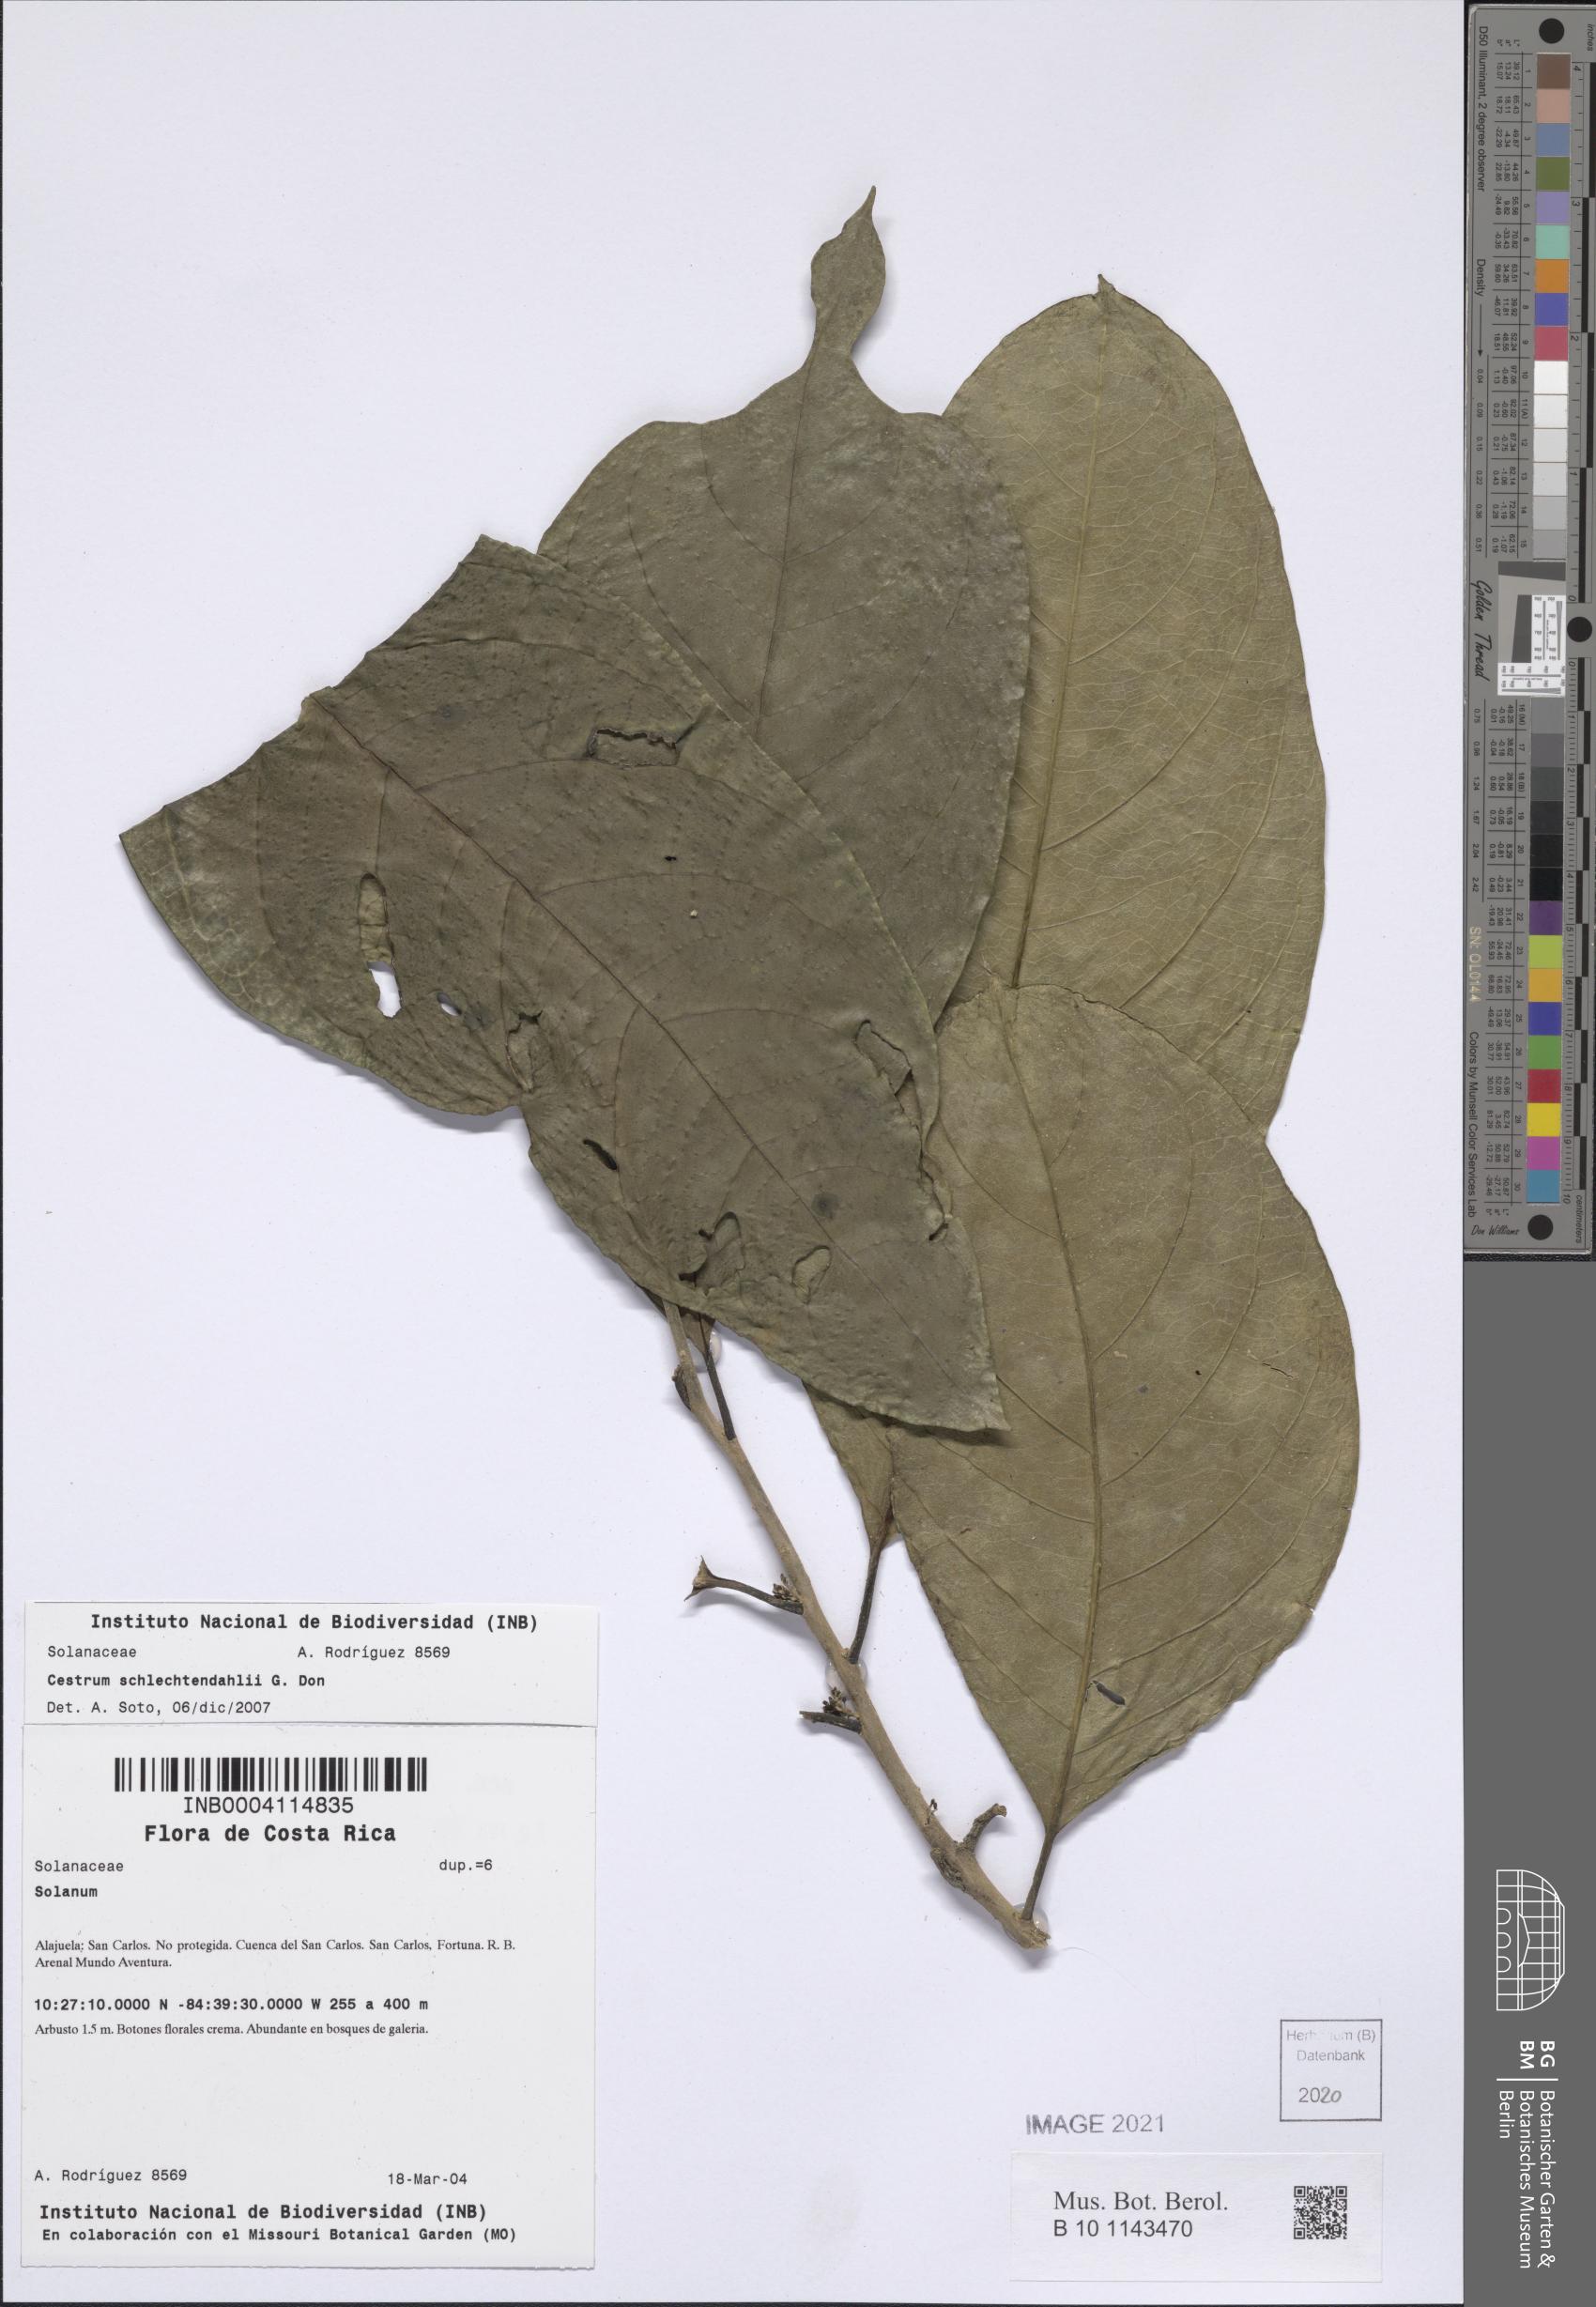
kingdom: Plantae
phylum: Tracheophyta
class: Magnoliopsida
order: Solanales
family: Solanaceae
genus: Cestrum
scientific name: Cestrum schlechtendalii
